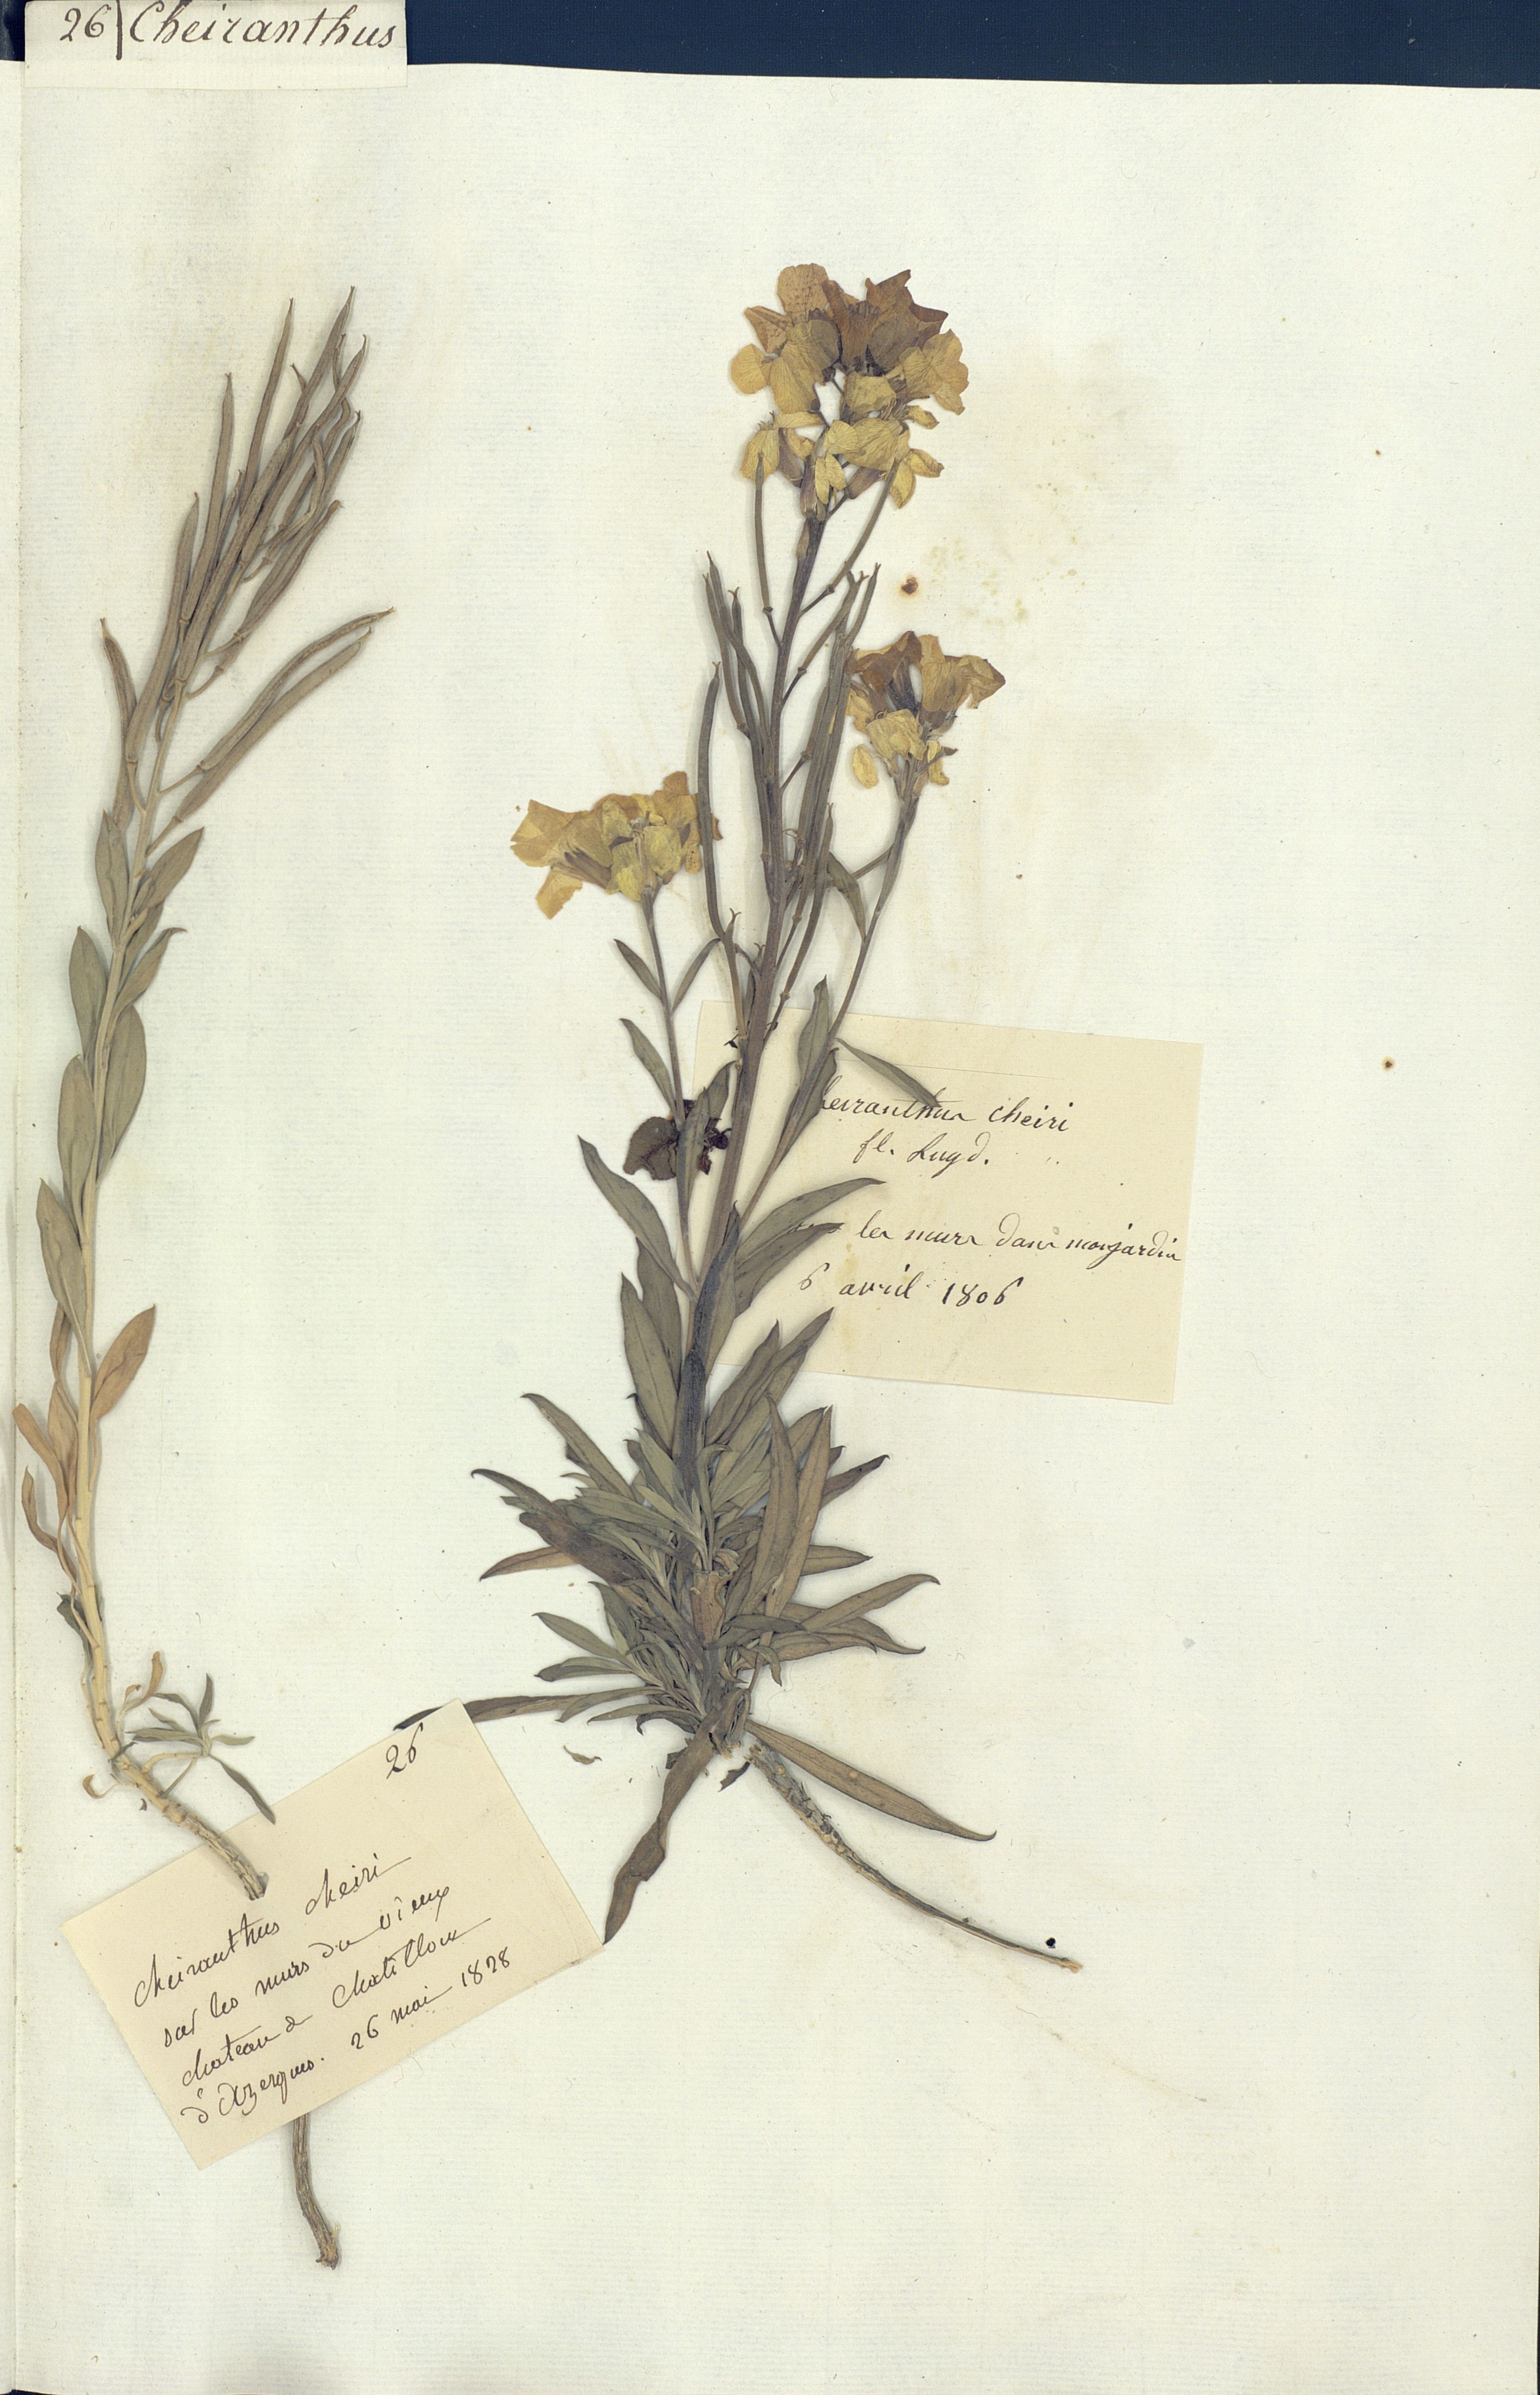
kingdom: Plantae
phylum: Tracheophyta
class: Magnoliopsida
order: Brassicales
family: Brassicaceae
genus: Erysimum
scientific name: Erysimum cheiri
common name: Wallflower
